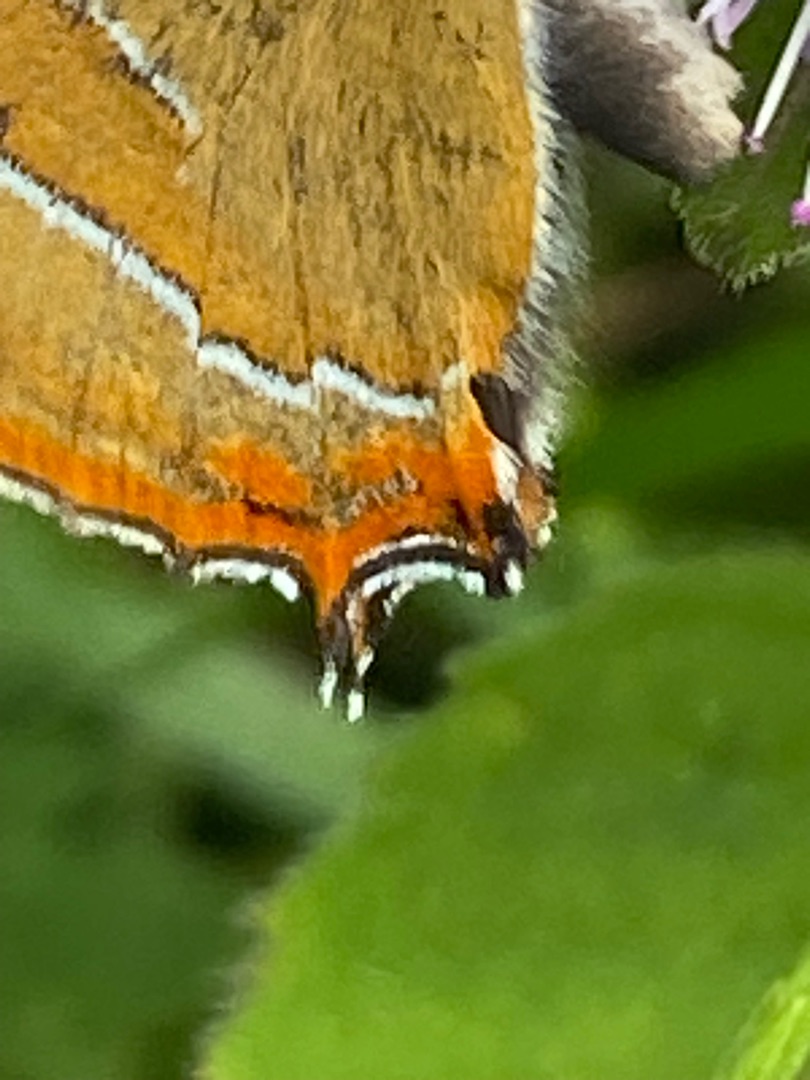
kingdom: Animalia
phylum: Arthropoda
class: Insecta
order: Lepidoptera
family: Lycaenidae
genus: Thecla
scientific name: Thecla betulae
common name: Guldhale
